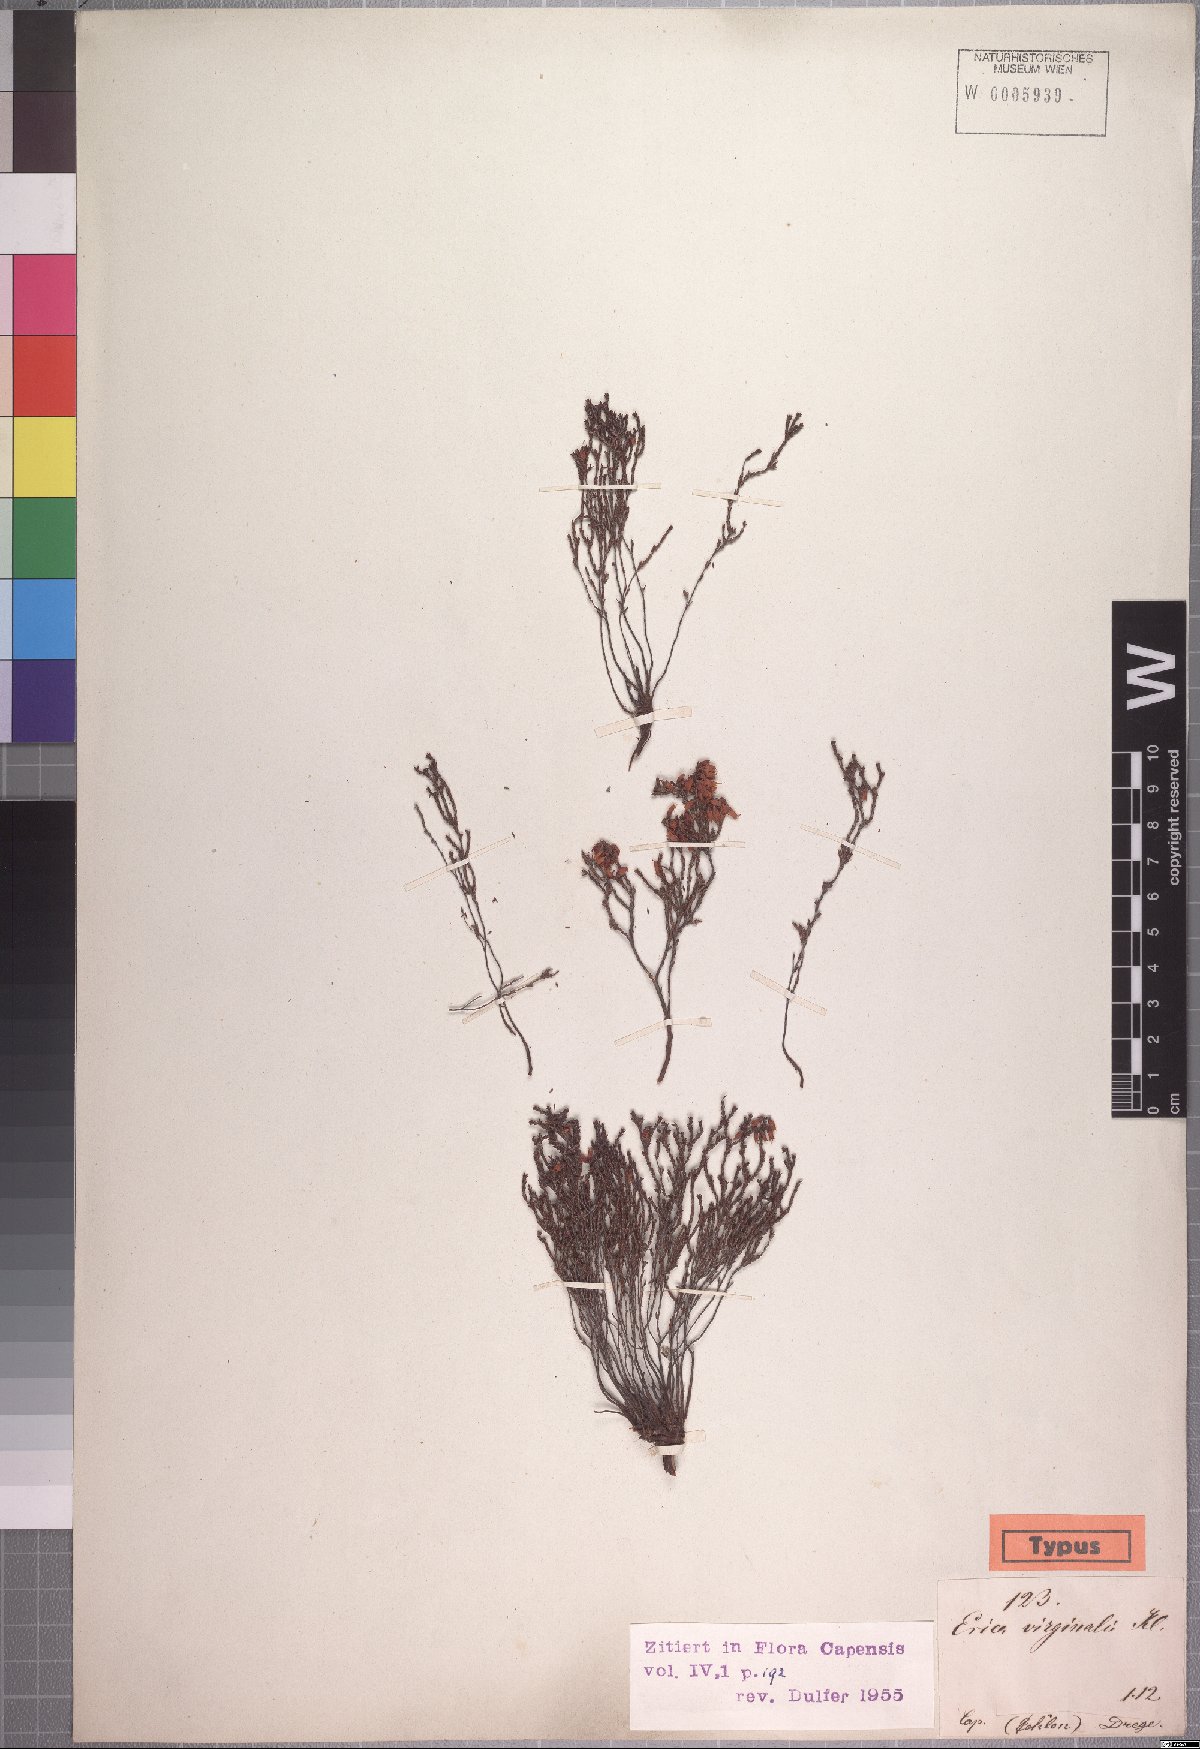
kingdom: Plantae
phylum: Tracheophyta
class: Magnoliopsida
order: Ericales
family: Ericaceae
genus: Erica
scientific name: Erica virginalis
